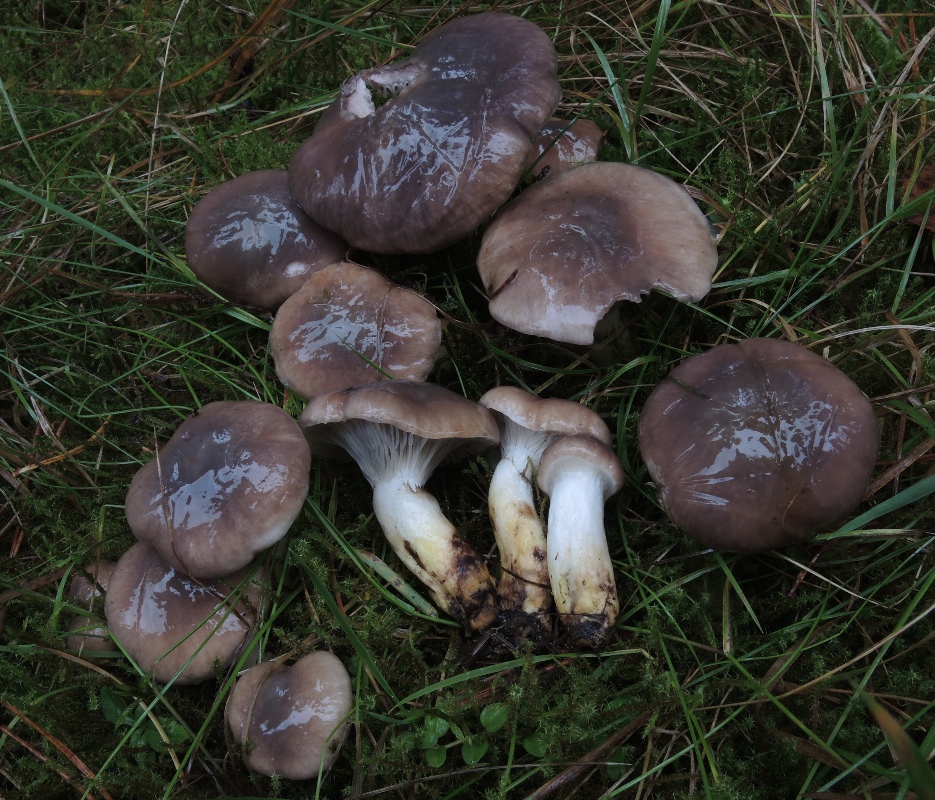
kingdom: Fungi
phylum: Basidiomycota
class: Agaricomycetes
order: Boletales
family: Gomphidiaceae
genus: Gomphidius
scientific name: Gomphidius glutinosus
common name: grå slimslør
